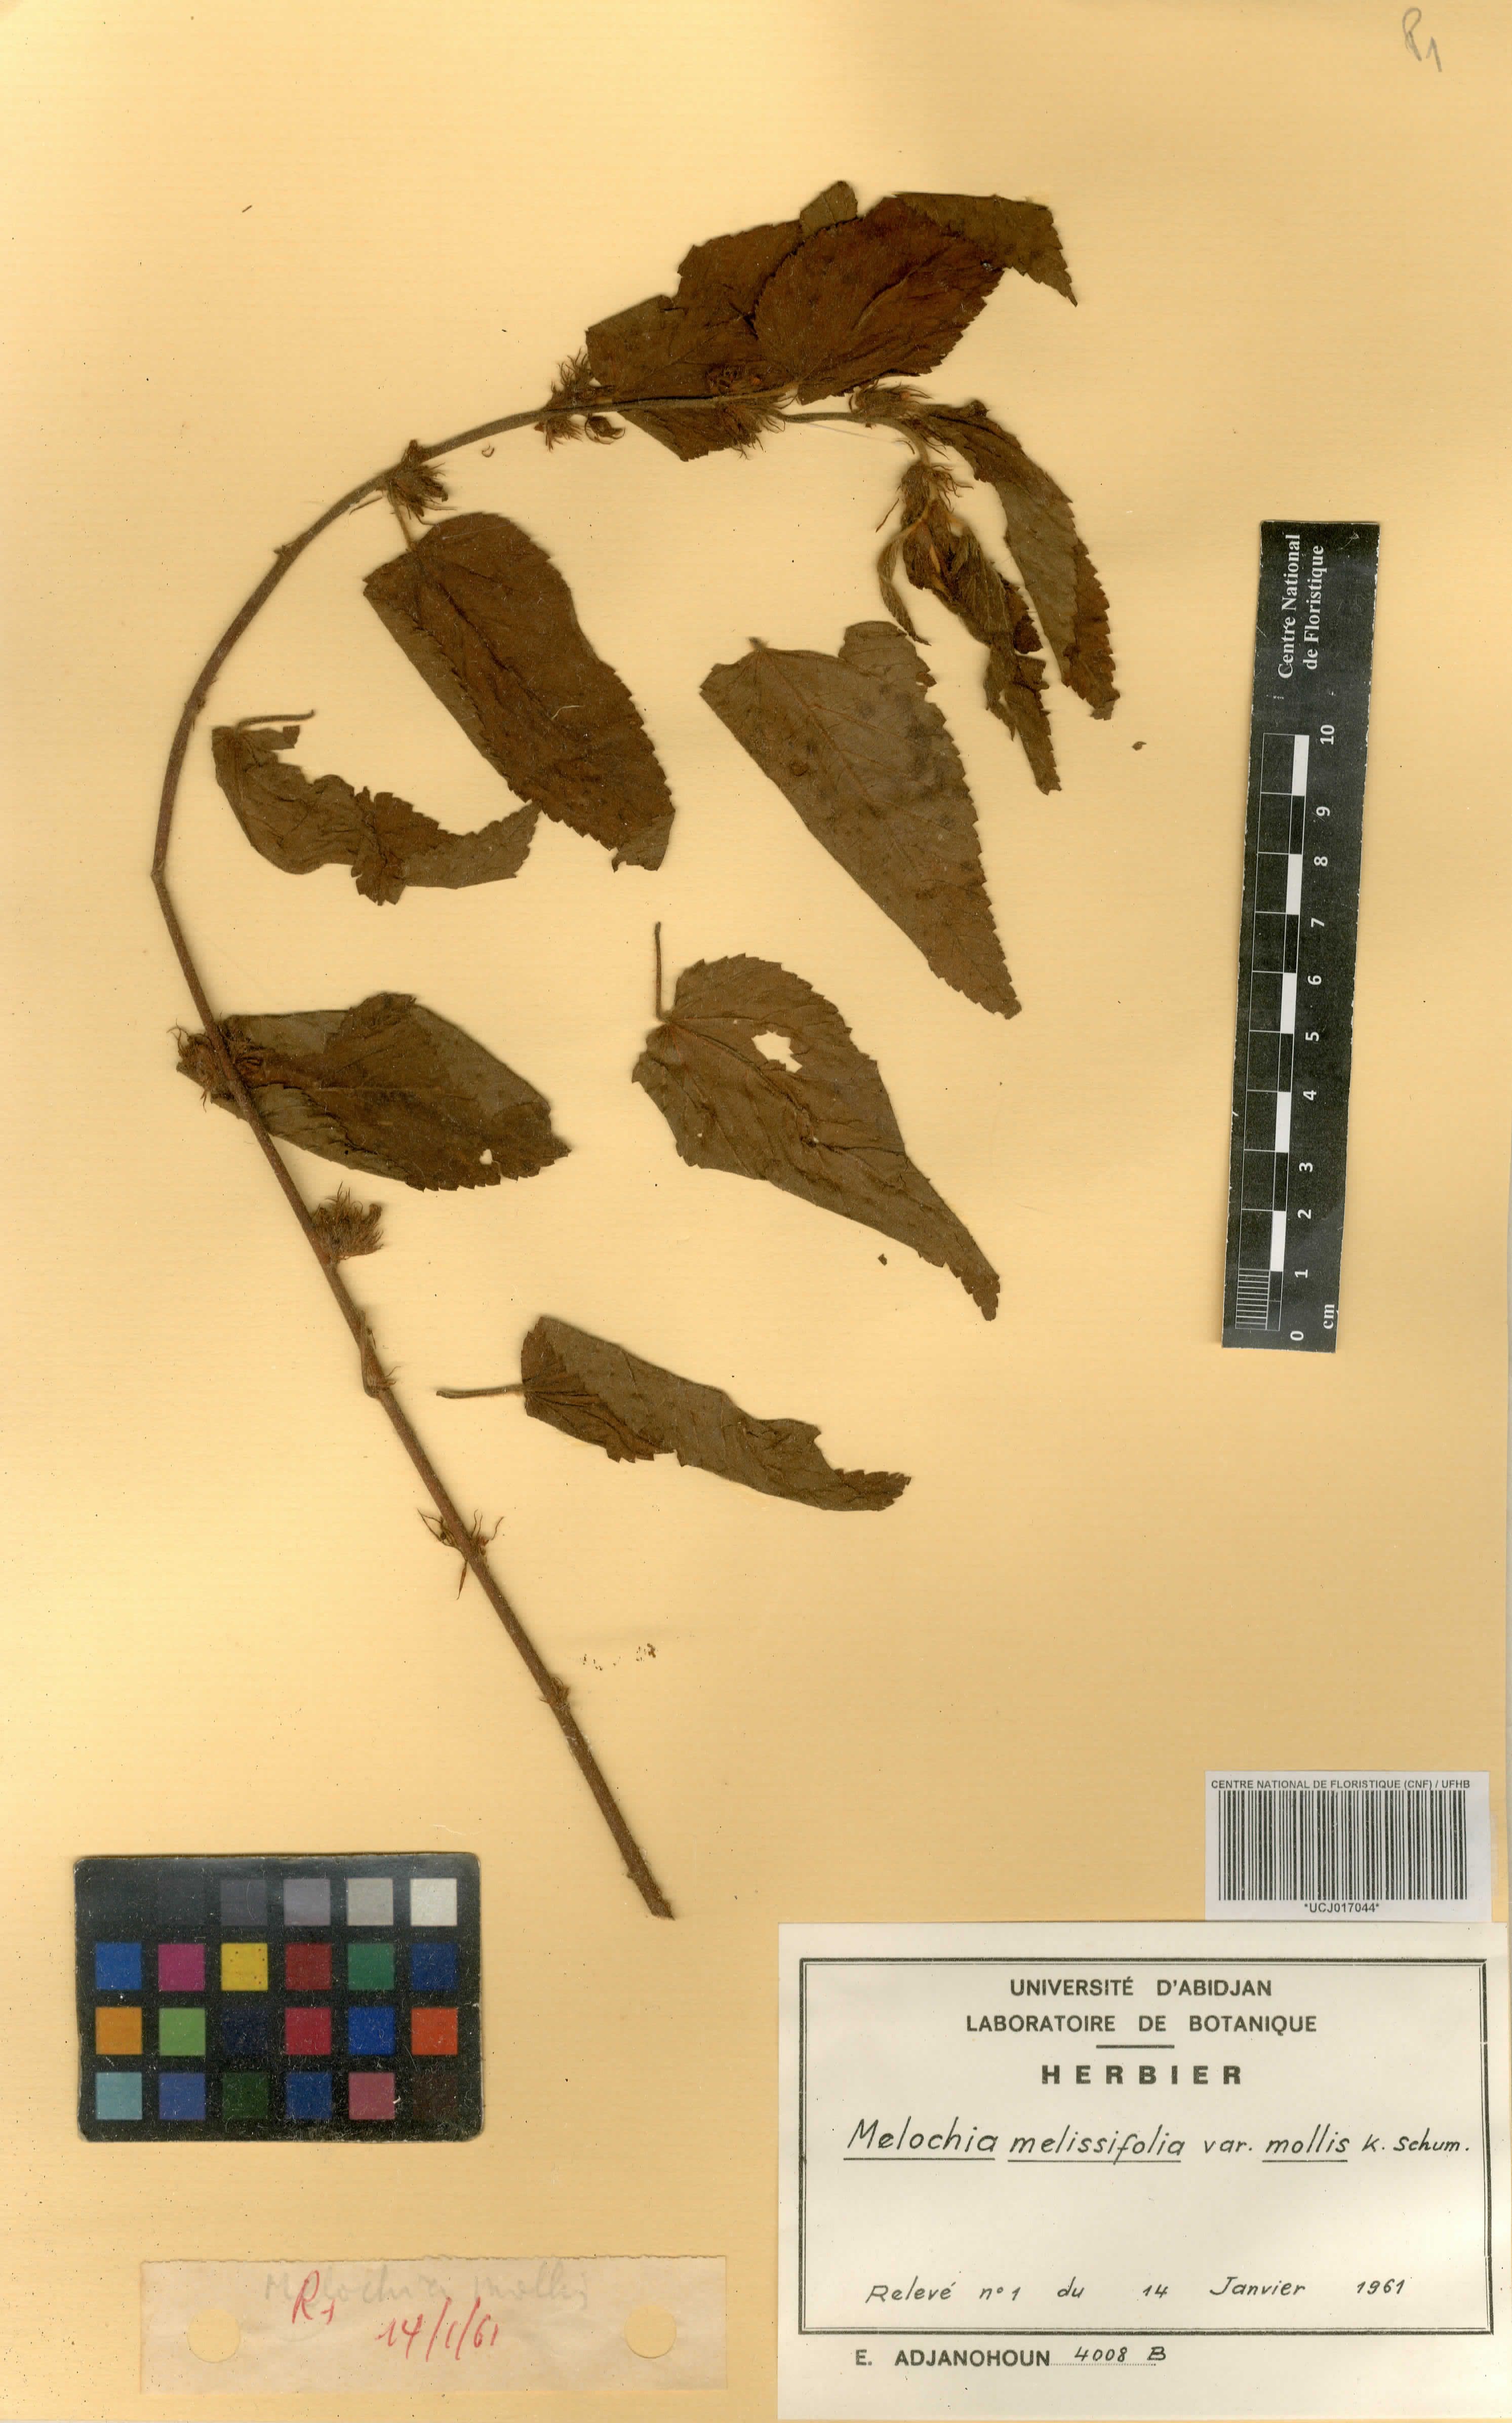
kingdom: Plantae
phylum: Tracheophyta
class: Magnoliopsida
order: Malvales
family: Malvaceae
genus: Melochia
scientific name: Melochia melissifolia
